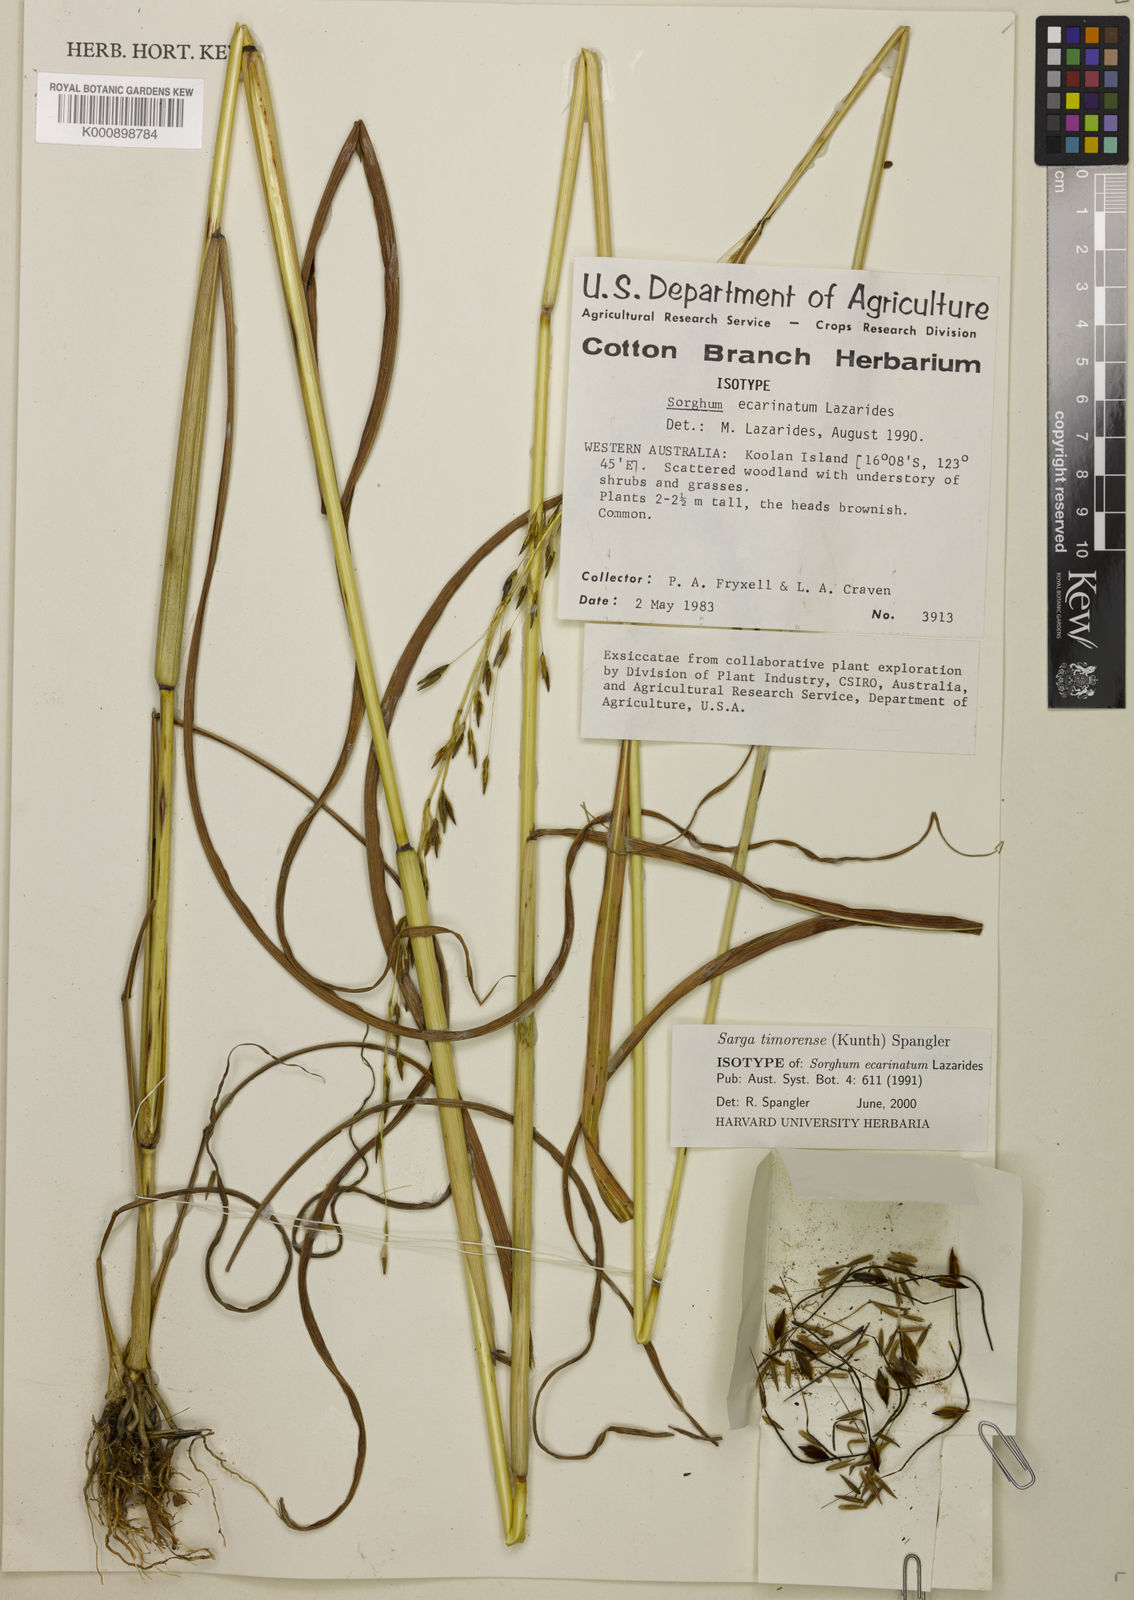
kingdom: Plantae
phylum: Tracheophyta
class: Liliopsida
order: Poales
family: Poaceae
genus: Sorghum
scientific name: Sorghum ecarinatum
